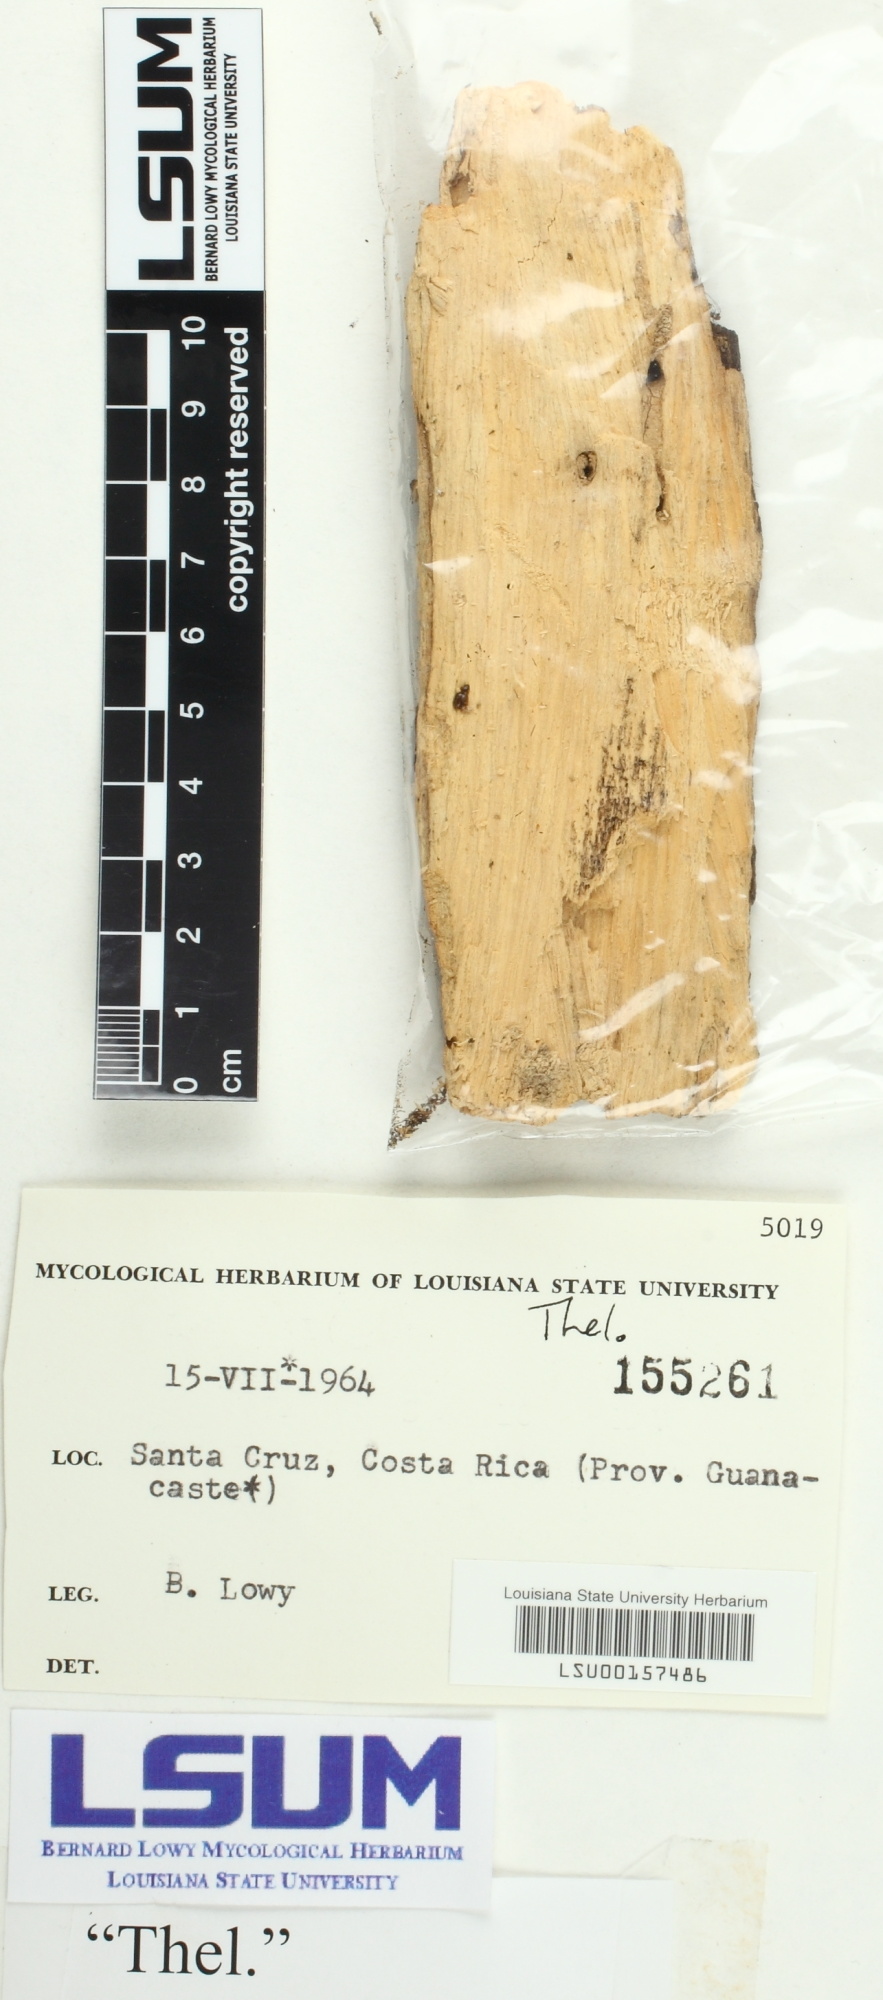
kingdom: Fungi
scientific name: Fungi
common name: Fungi
